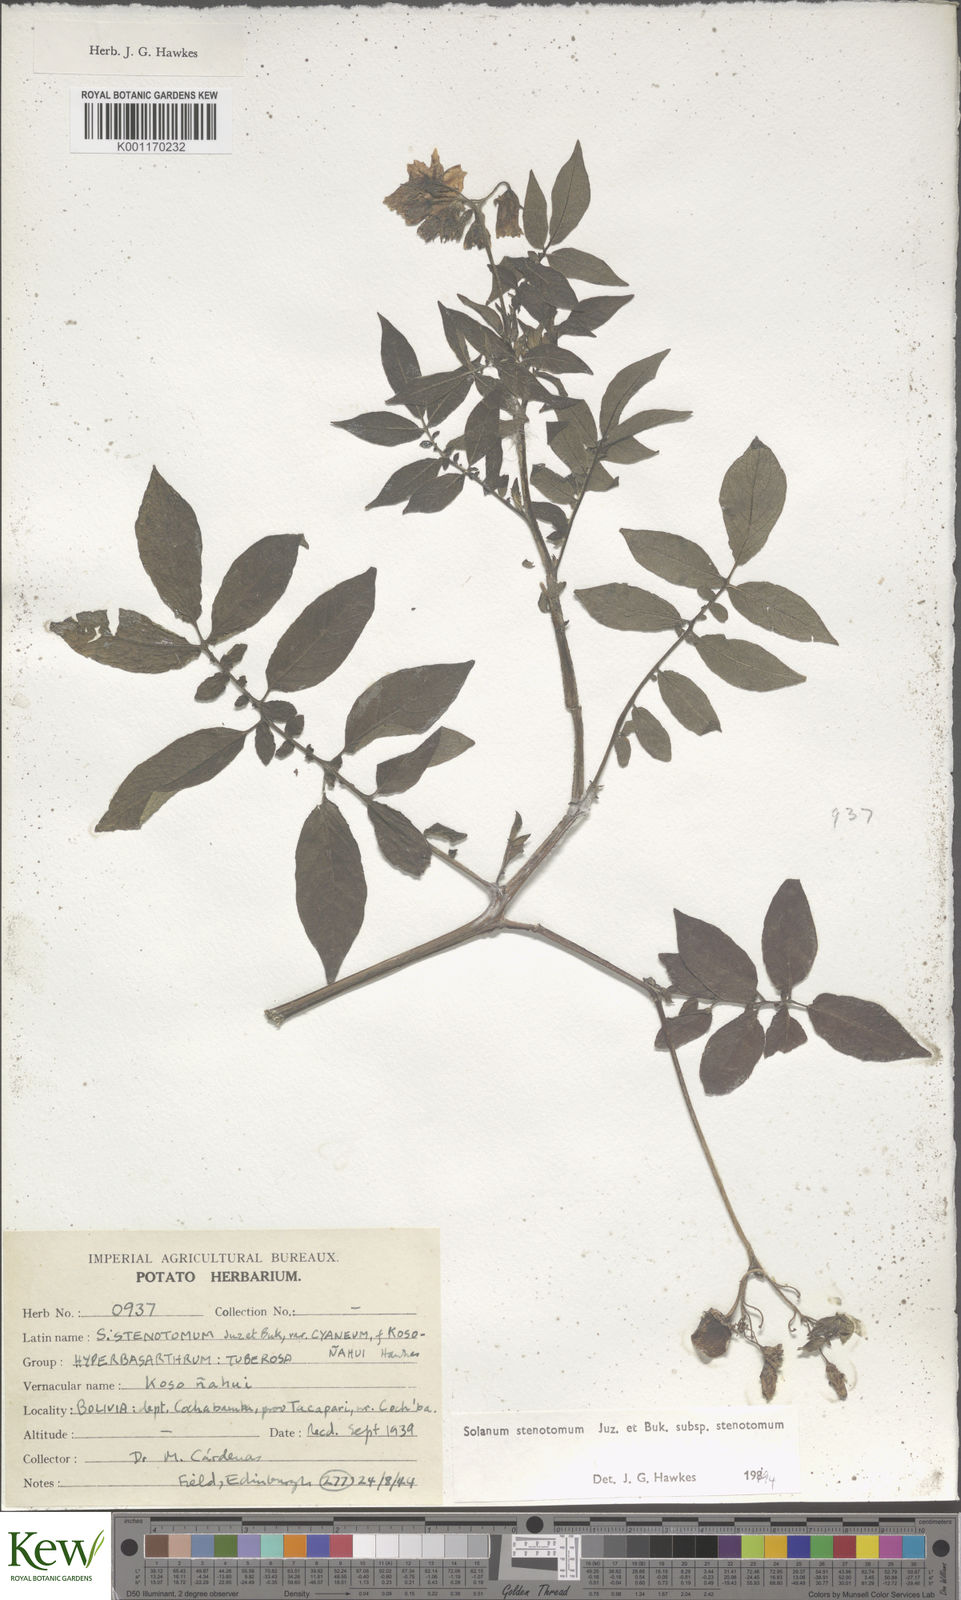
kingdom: Plantae
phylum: Tracheophyta
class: Magnoliopsida
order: Solanales
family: Solanaceae
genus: Solanum
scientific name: Solanum tuberosum
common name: Potato
